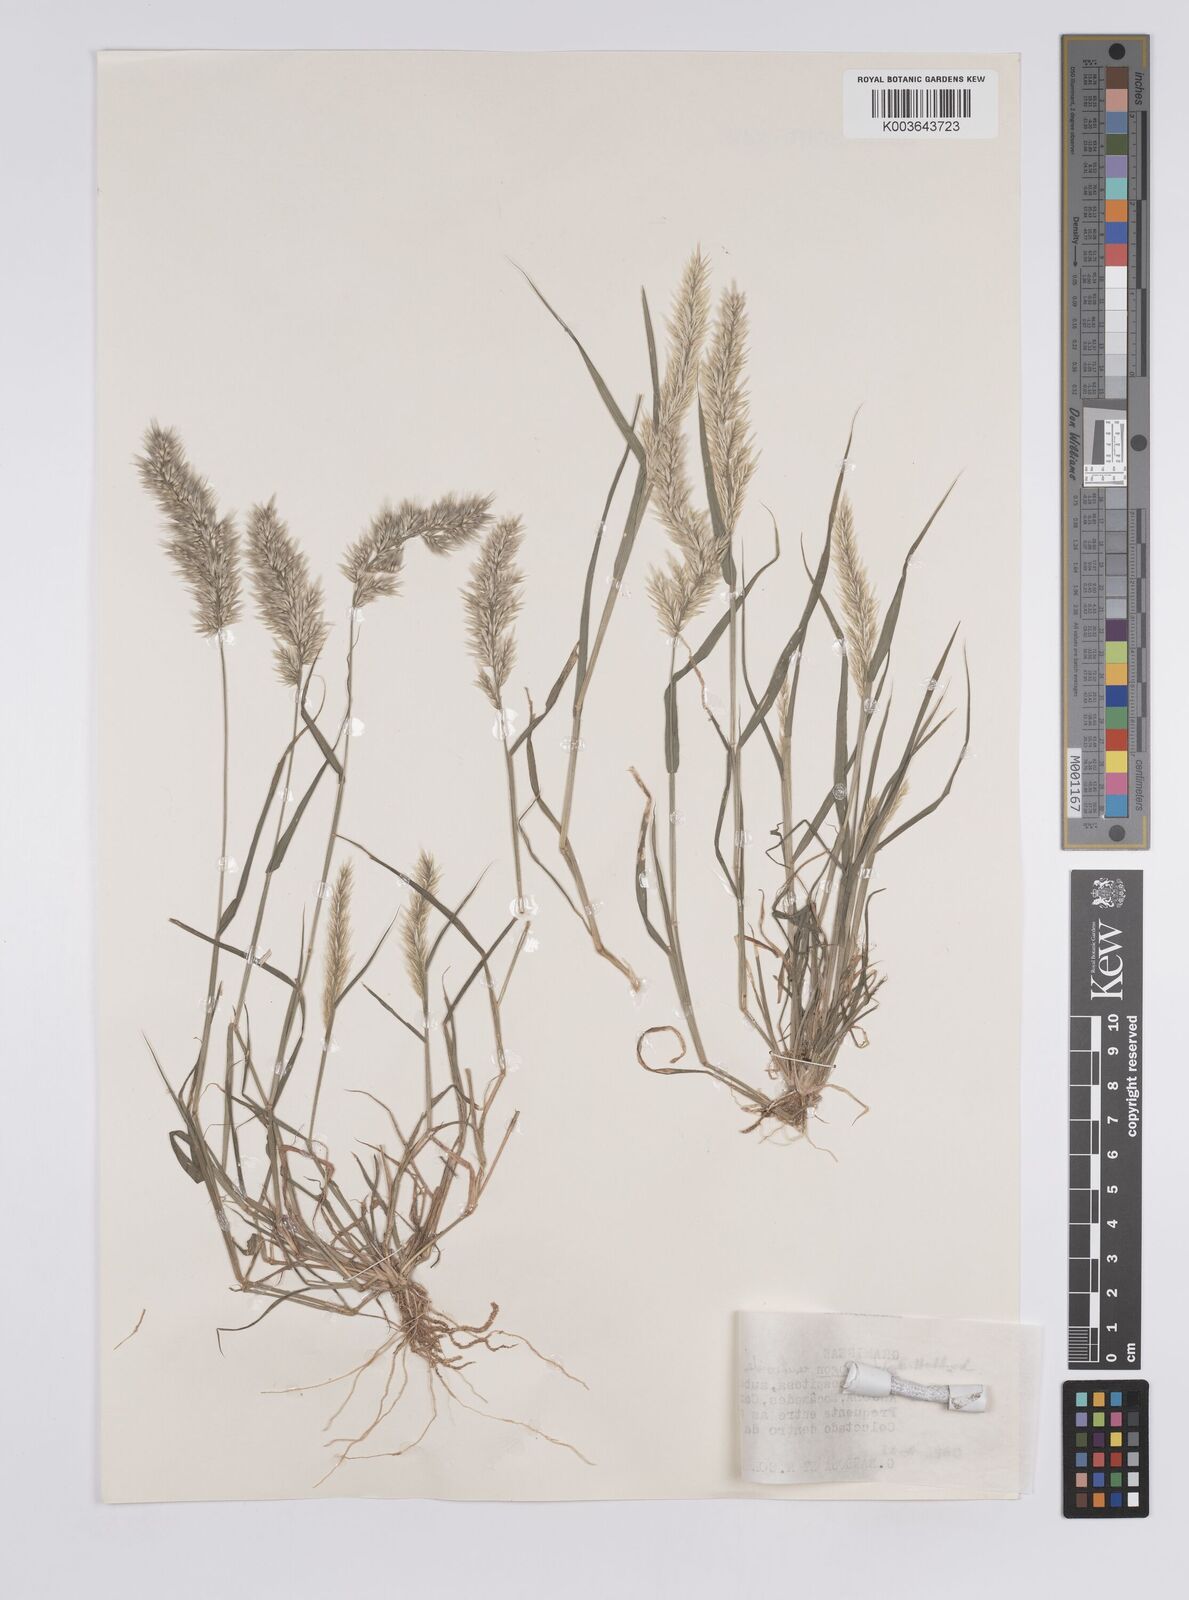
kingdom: Plantae
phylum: Tracheophyta
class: Liliopsida
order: Poales
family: Poaceae
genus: Enneapogon
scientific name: Enneapogon cenchroides
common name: Soft feather pappusgrass
